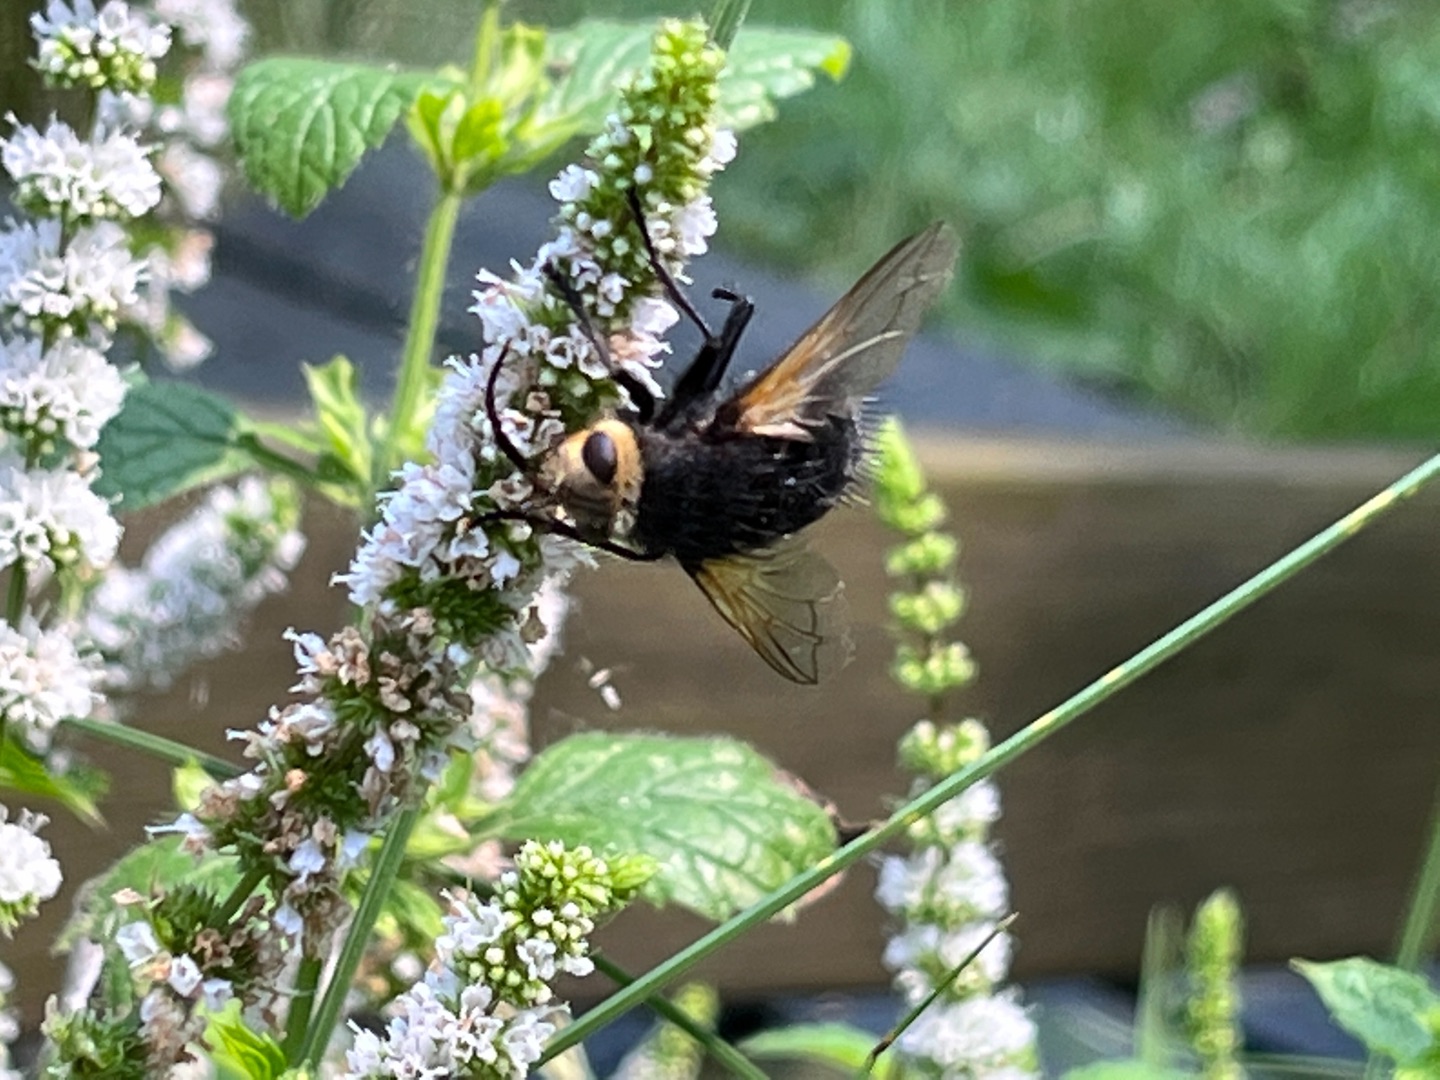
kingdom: Animalia
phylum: Arthropoda
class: Insecta
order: Diptera
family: Tachinidae
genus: Tachina
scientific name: Tachina grossa
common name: Kæmpefluen Harald
